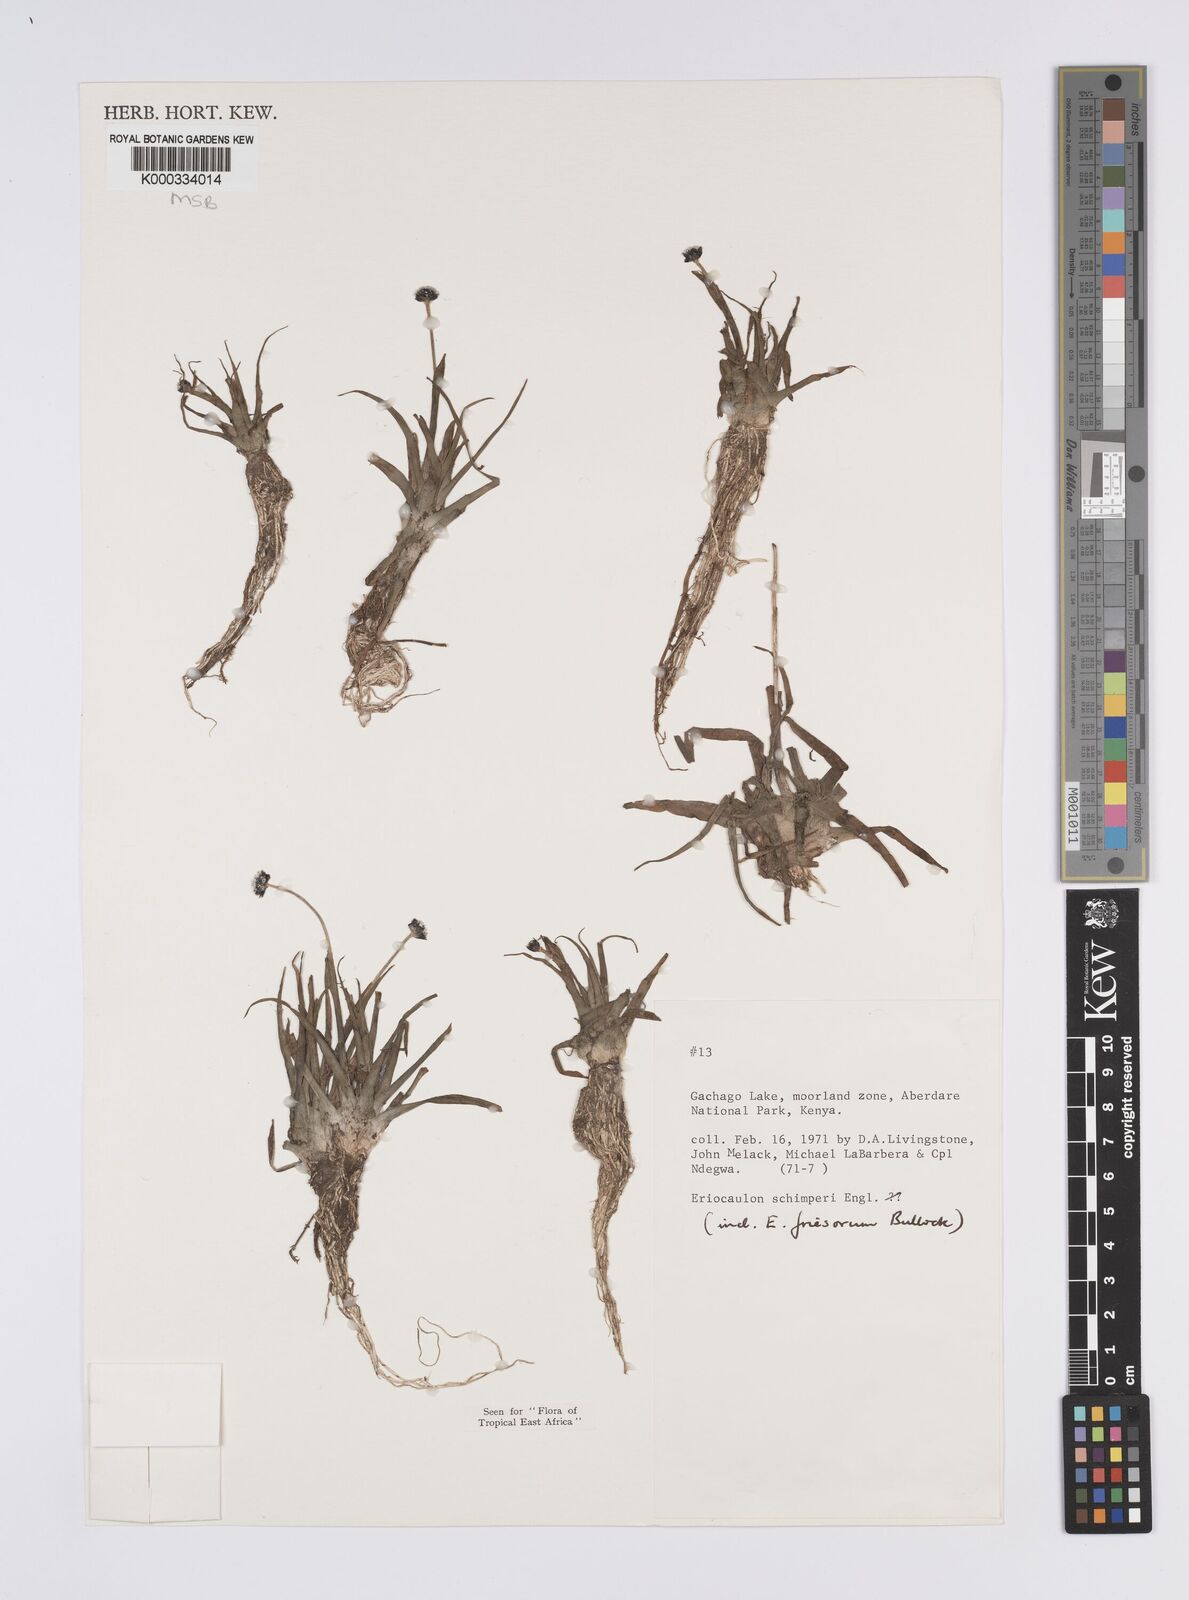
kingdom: Plantae
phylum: Tracheophyta
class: Liliopsida
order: Poales
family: Eriocaulaceae
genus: Eriocaulon
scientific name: Eriocaulon
